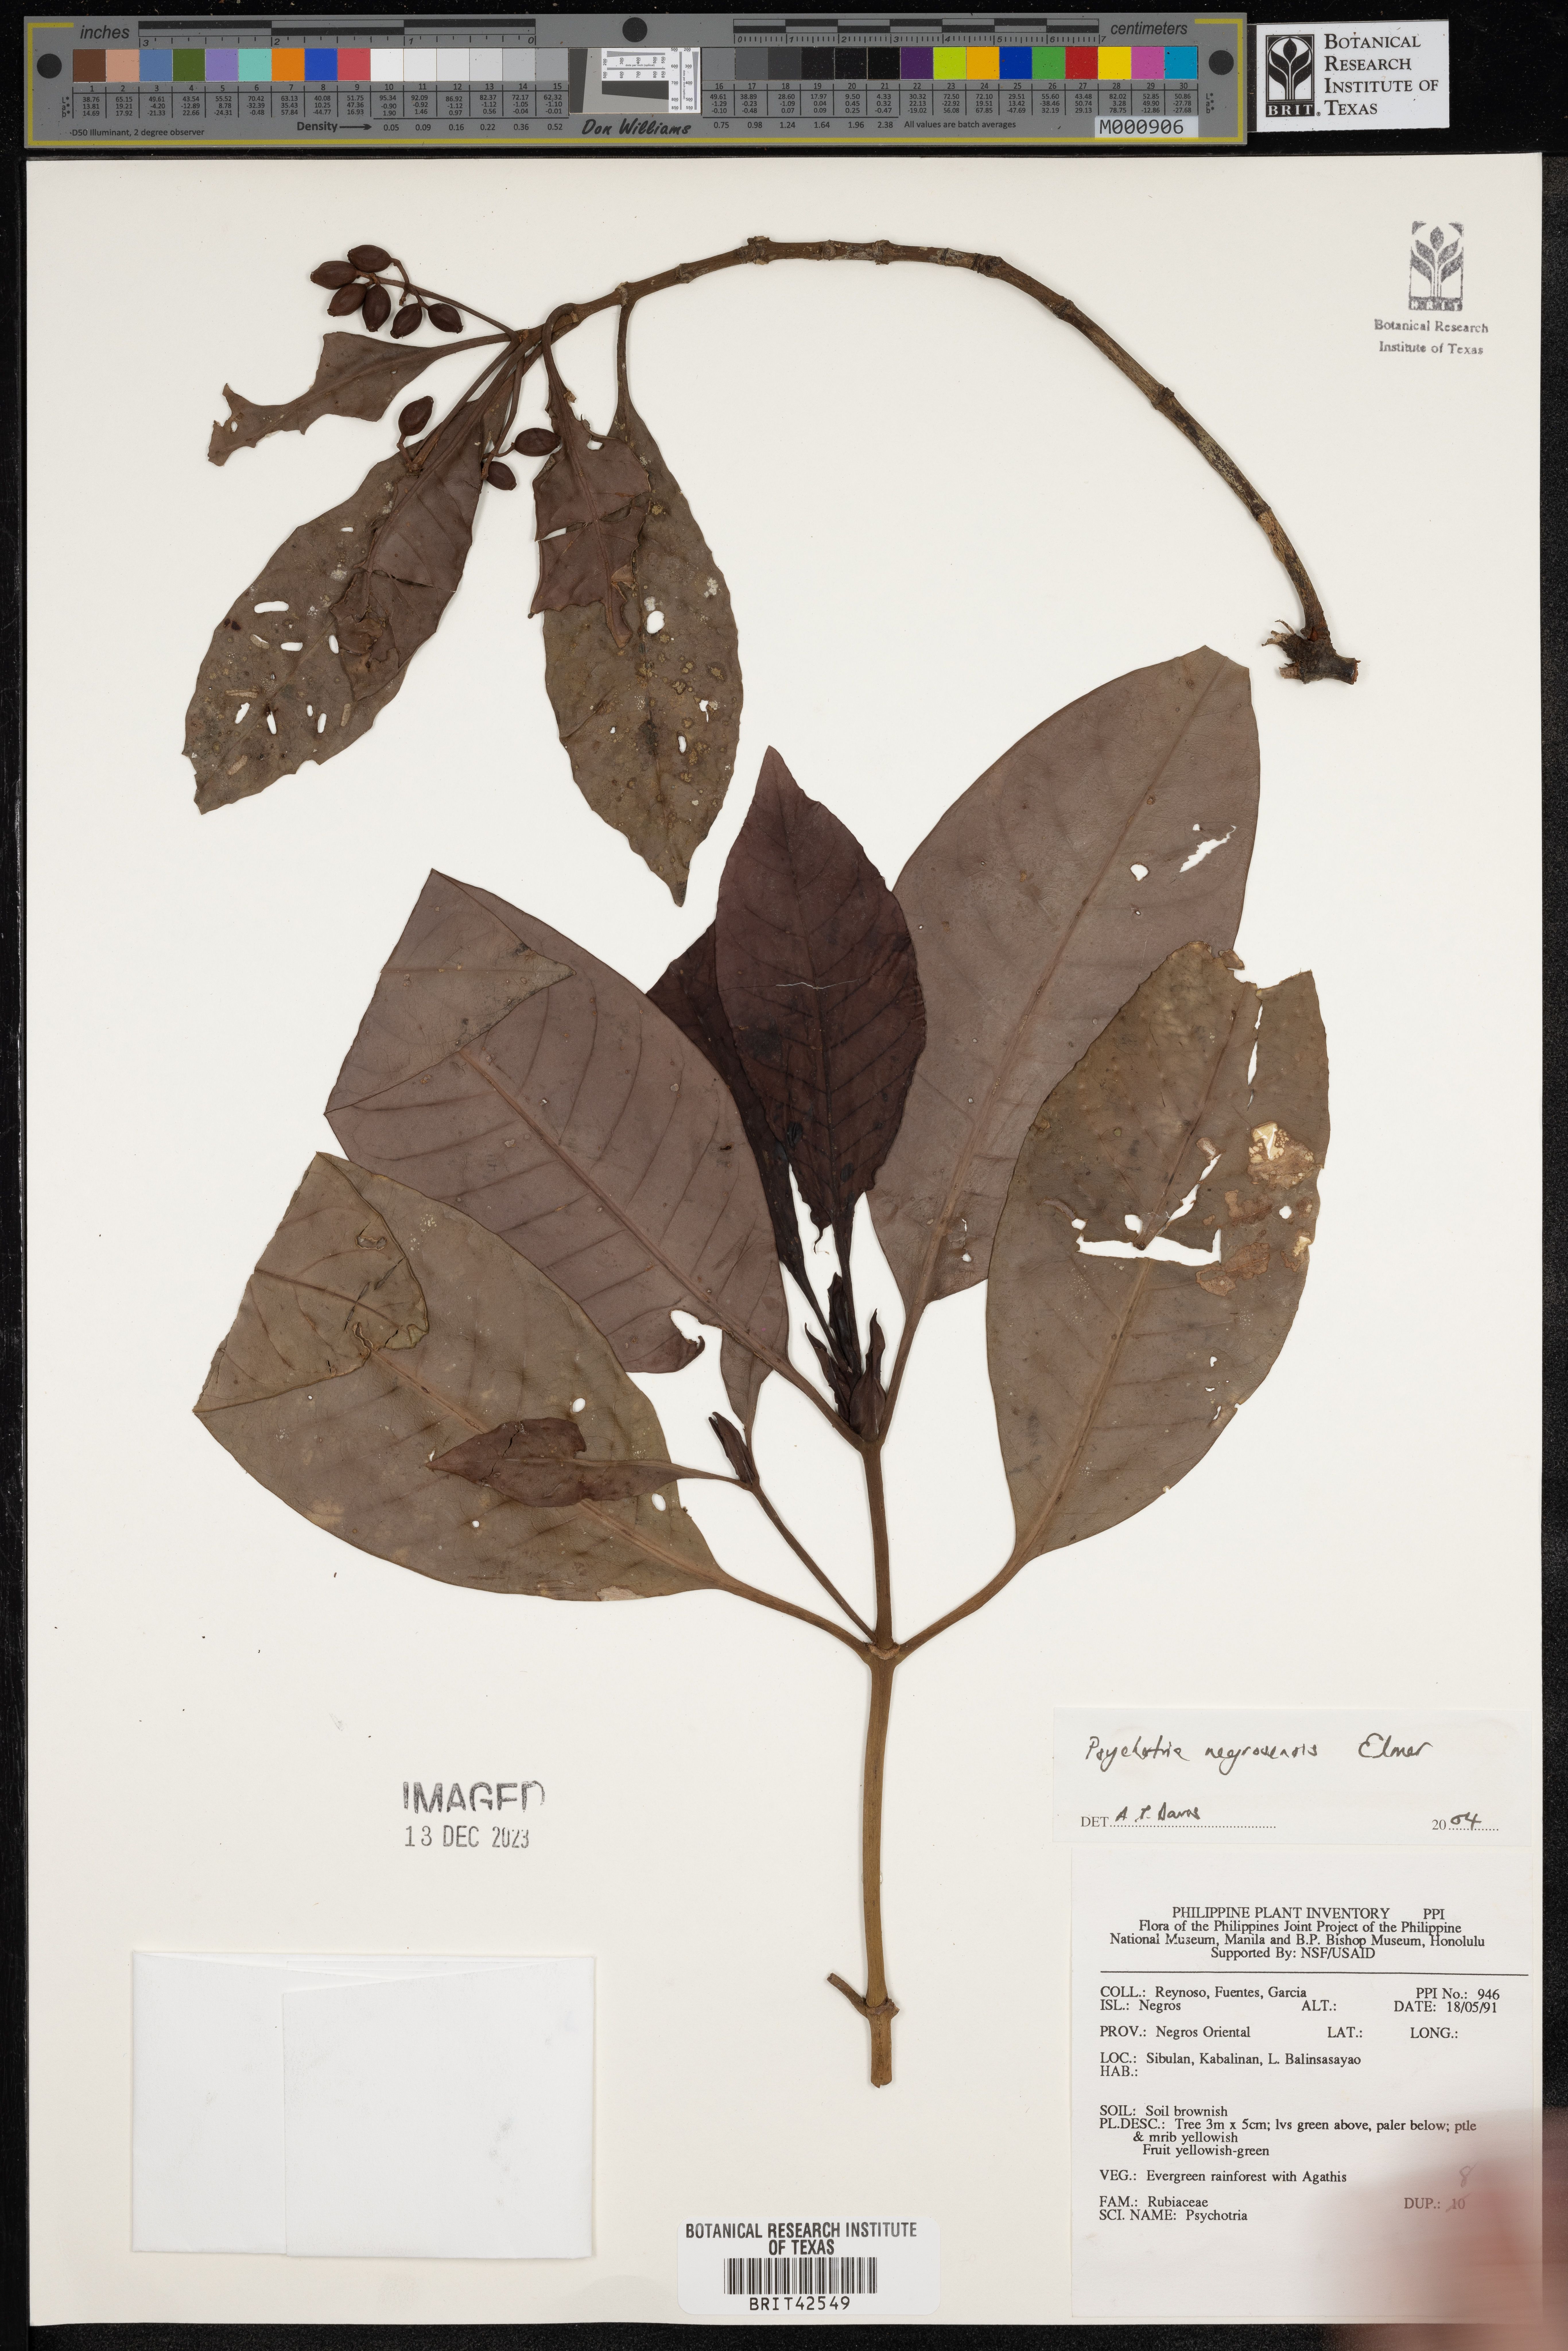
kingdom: Plantae
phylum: Tracheophyta
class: Magnoliopsida
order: Gentianales
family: Rubiaceae
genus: Psychotria
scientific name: Psychotria negrosensis
